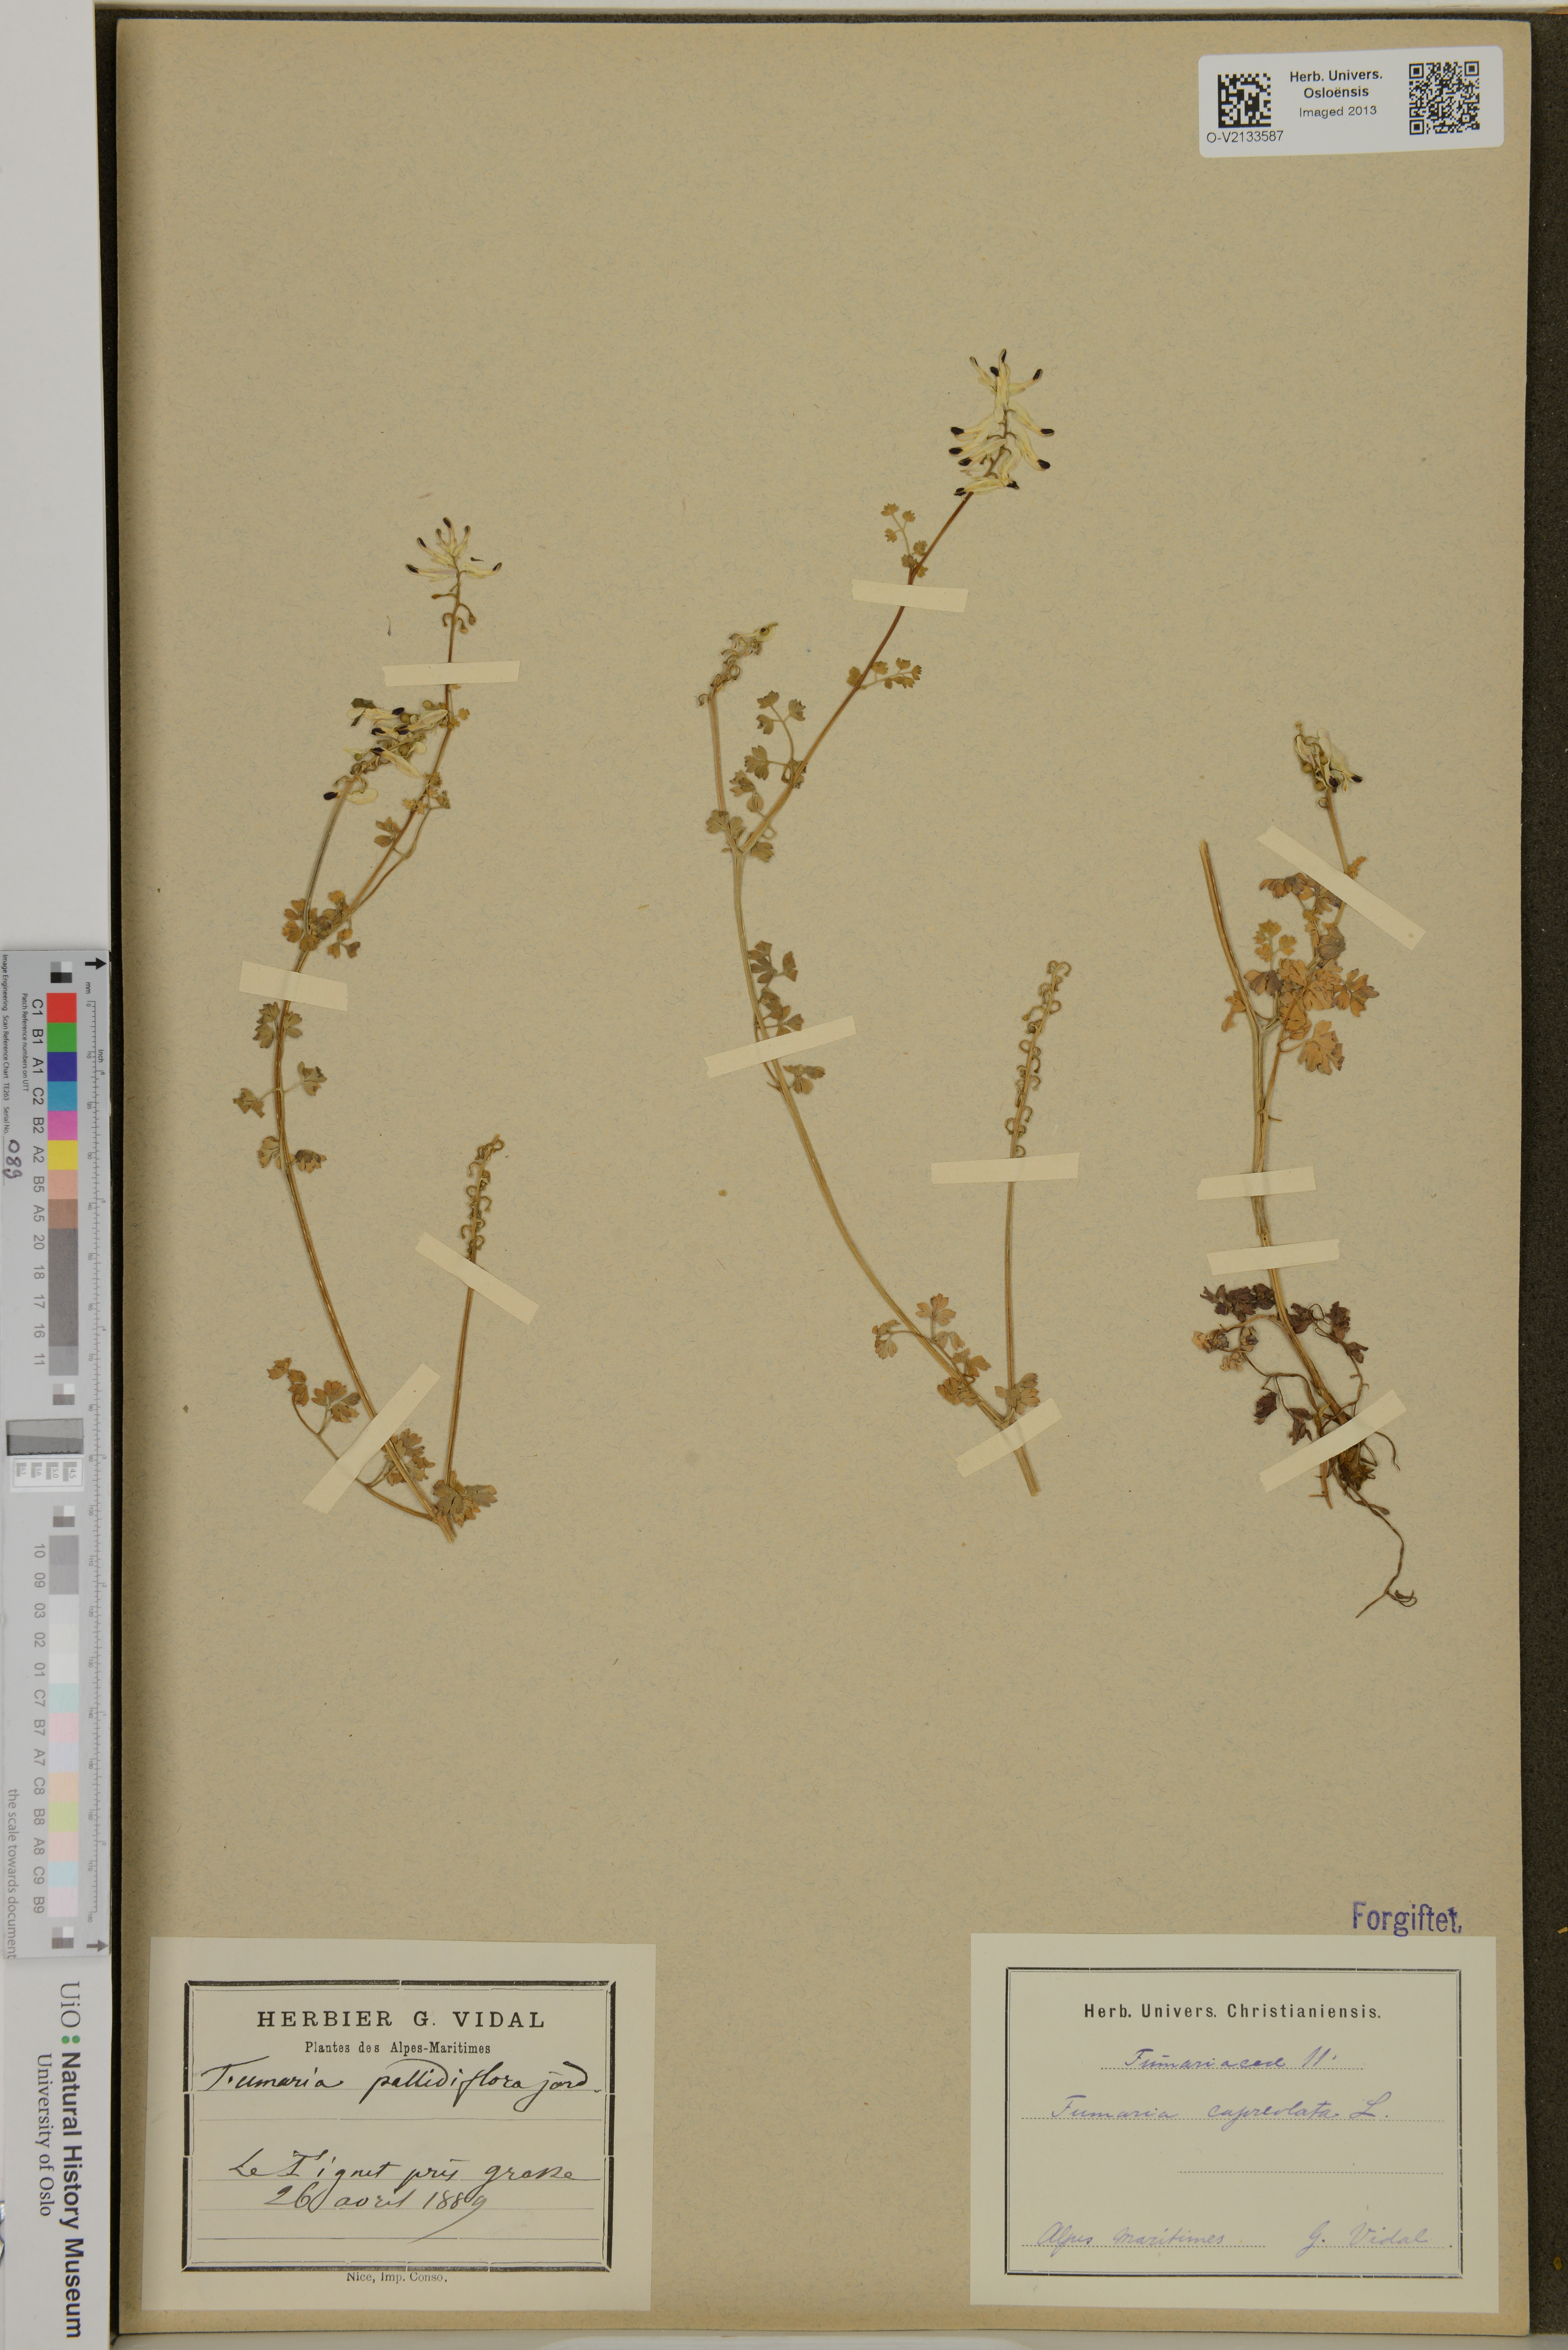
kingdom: Plantae
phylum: Tracheophyta
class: Magnoliopsida
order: Ranunculales
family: Papaveraceae
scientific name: Papaveraceae
